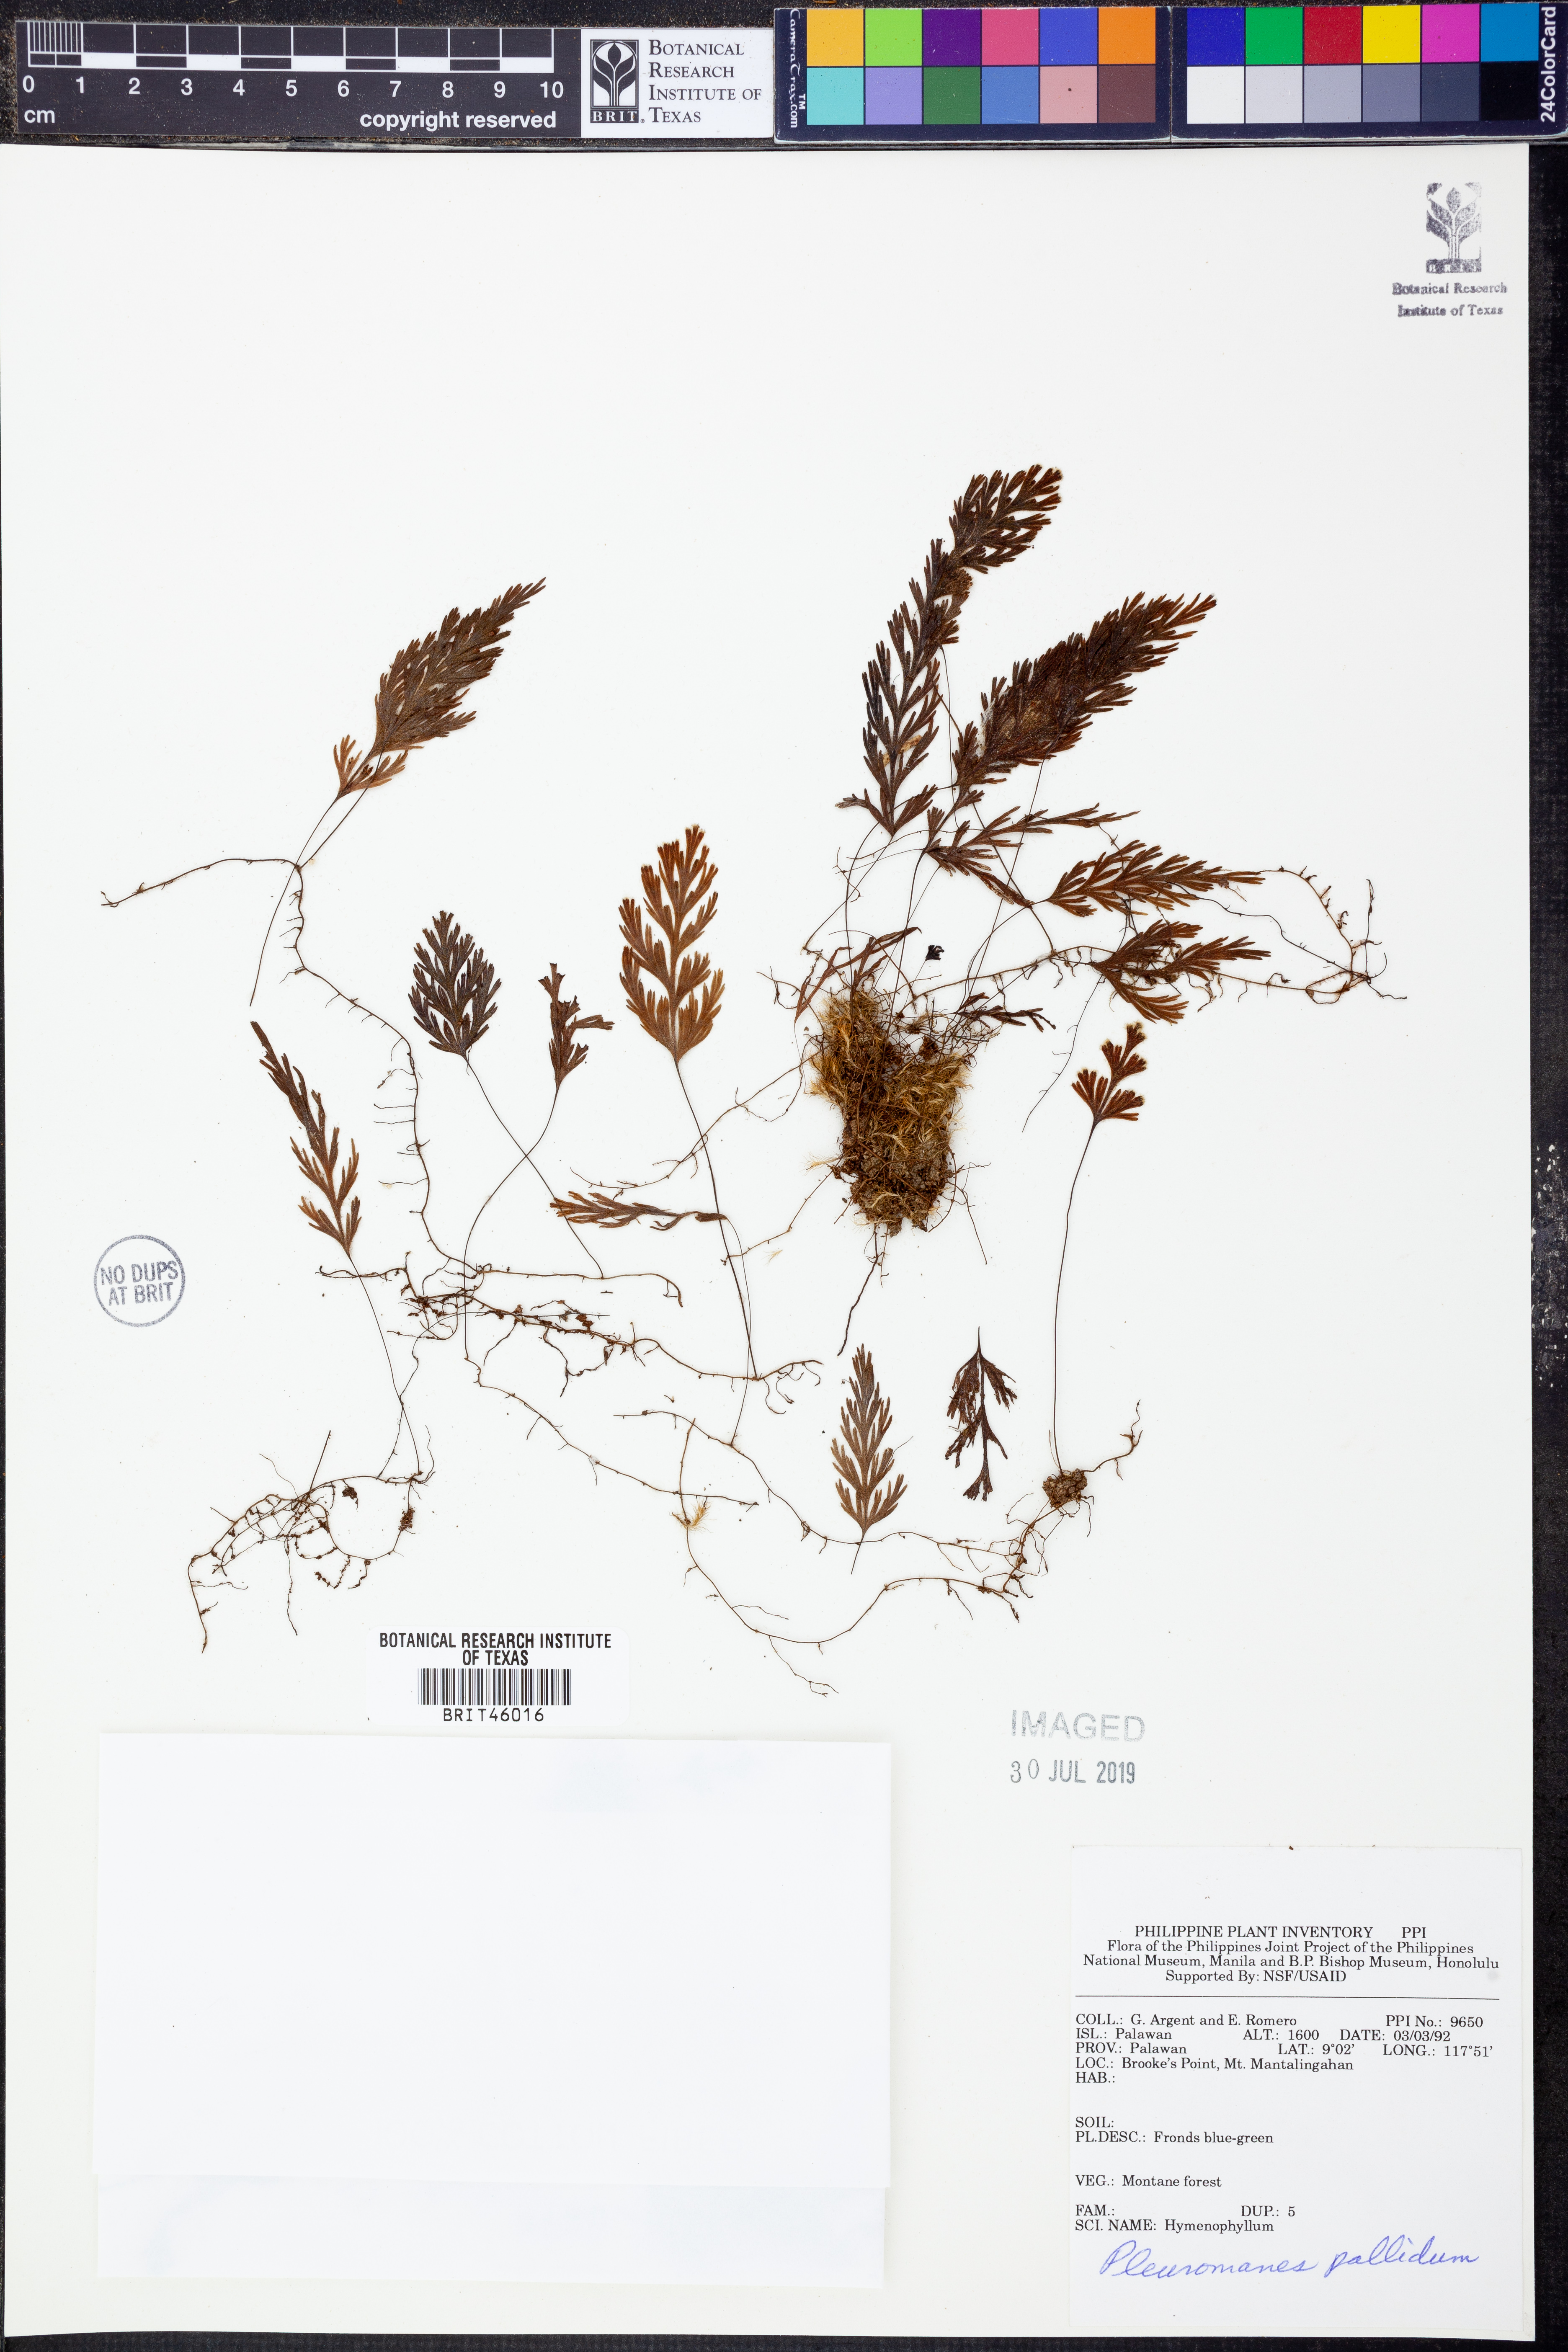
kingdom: Plantae
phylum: Tracheophyta
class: Polypodiopsida
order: Hymenophyllales
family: Hymenophyllaceae
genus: Hymenophyllum
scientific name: Hymenophyllum pallidum
